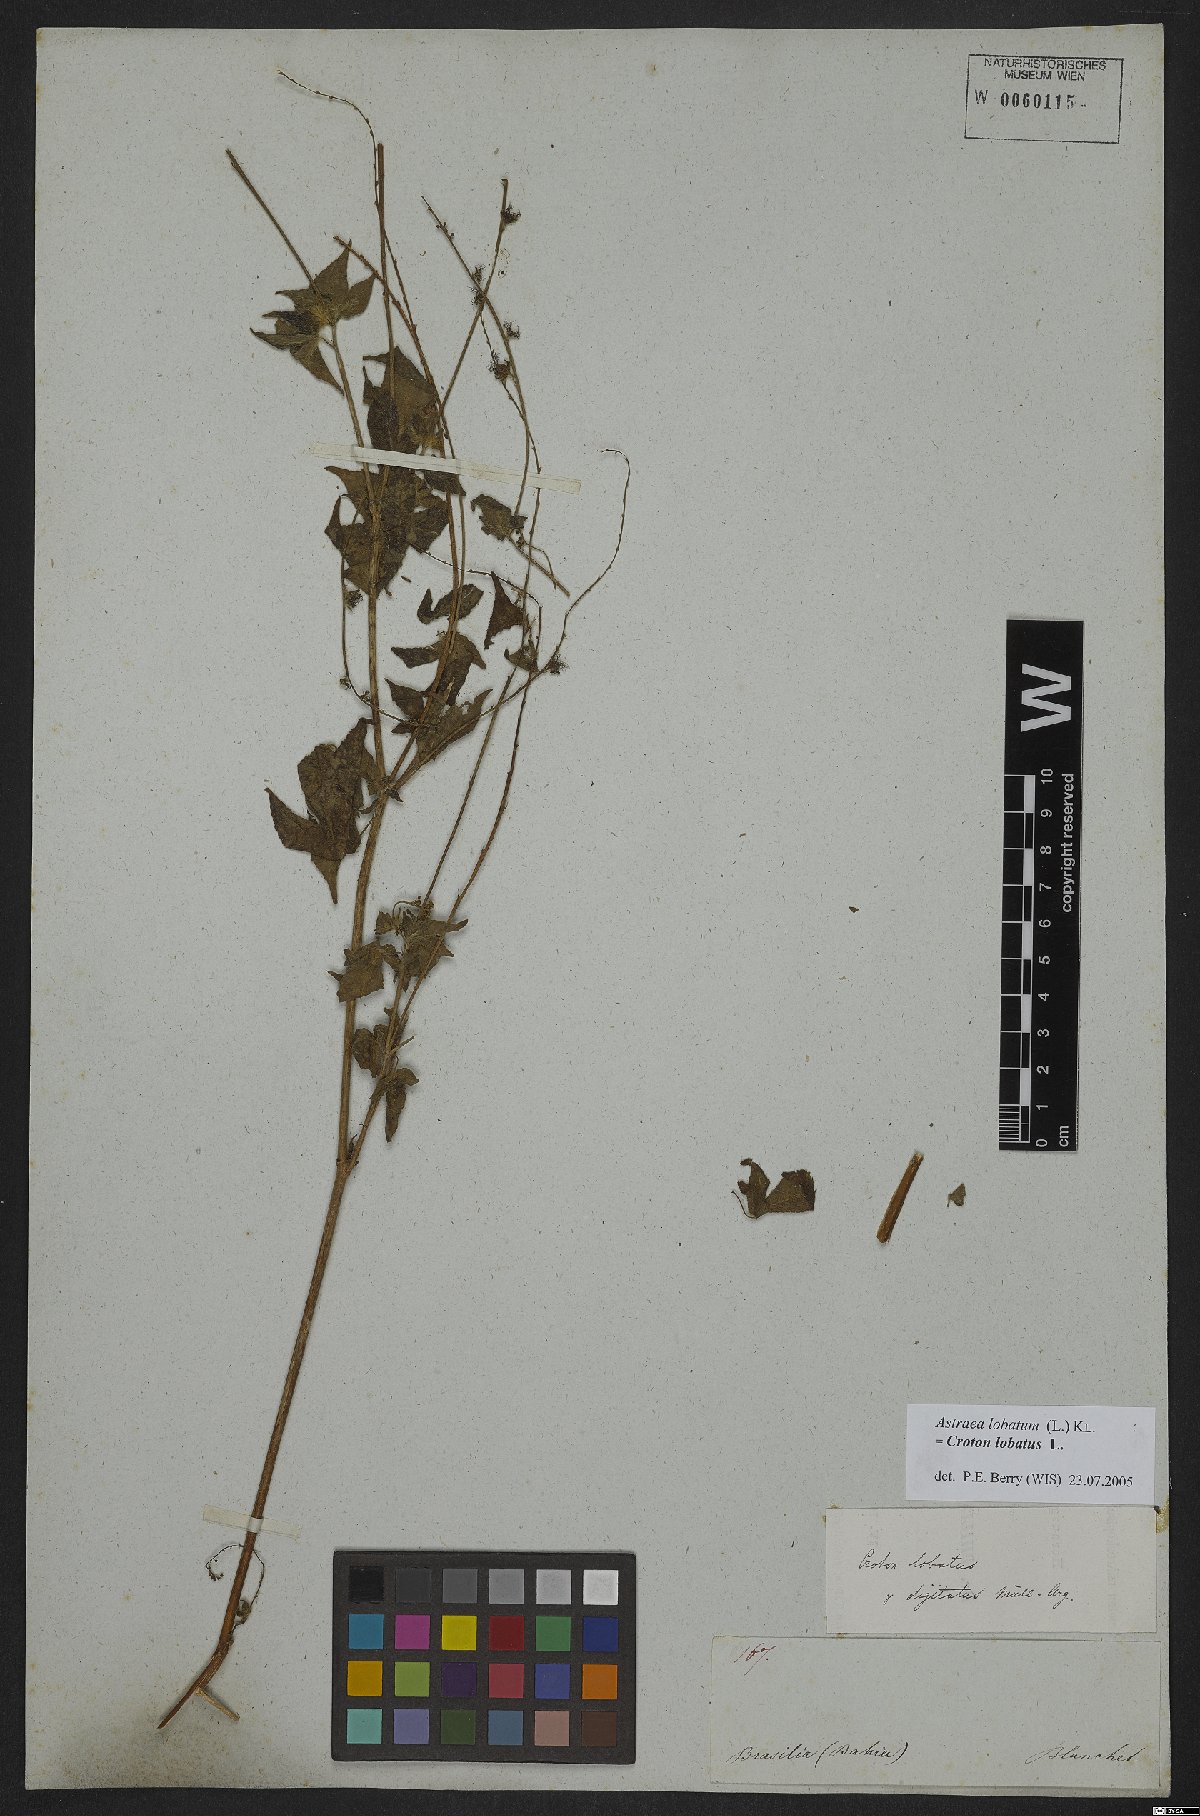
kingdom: Plantae
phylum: Tracheophyta
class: Magnoliopsida
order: Malpighiales
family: Euphorbiaceae
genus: Astraea
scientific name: Astraea lobata
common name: Lobed croton
